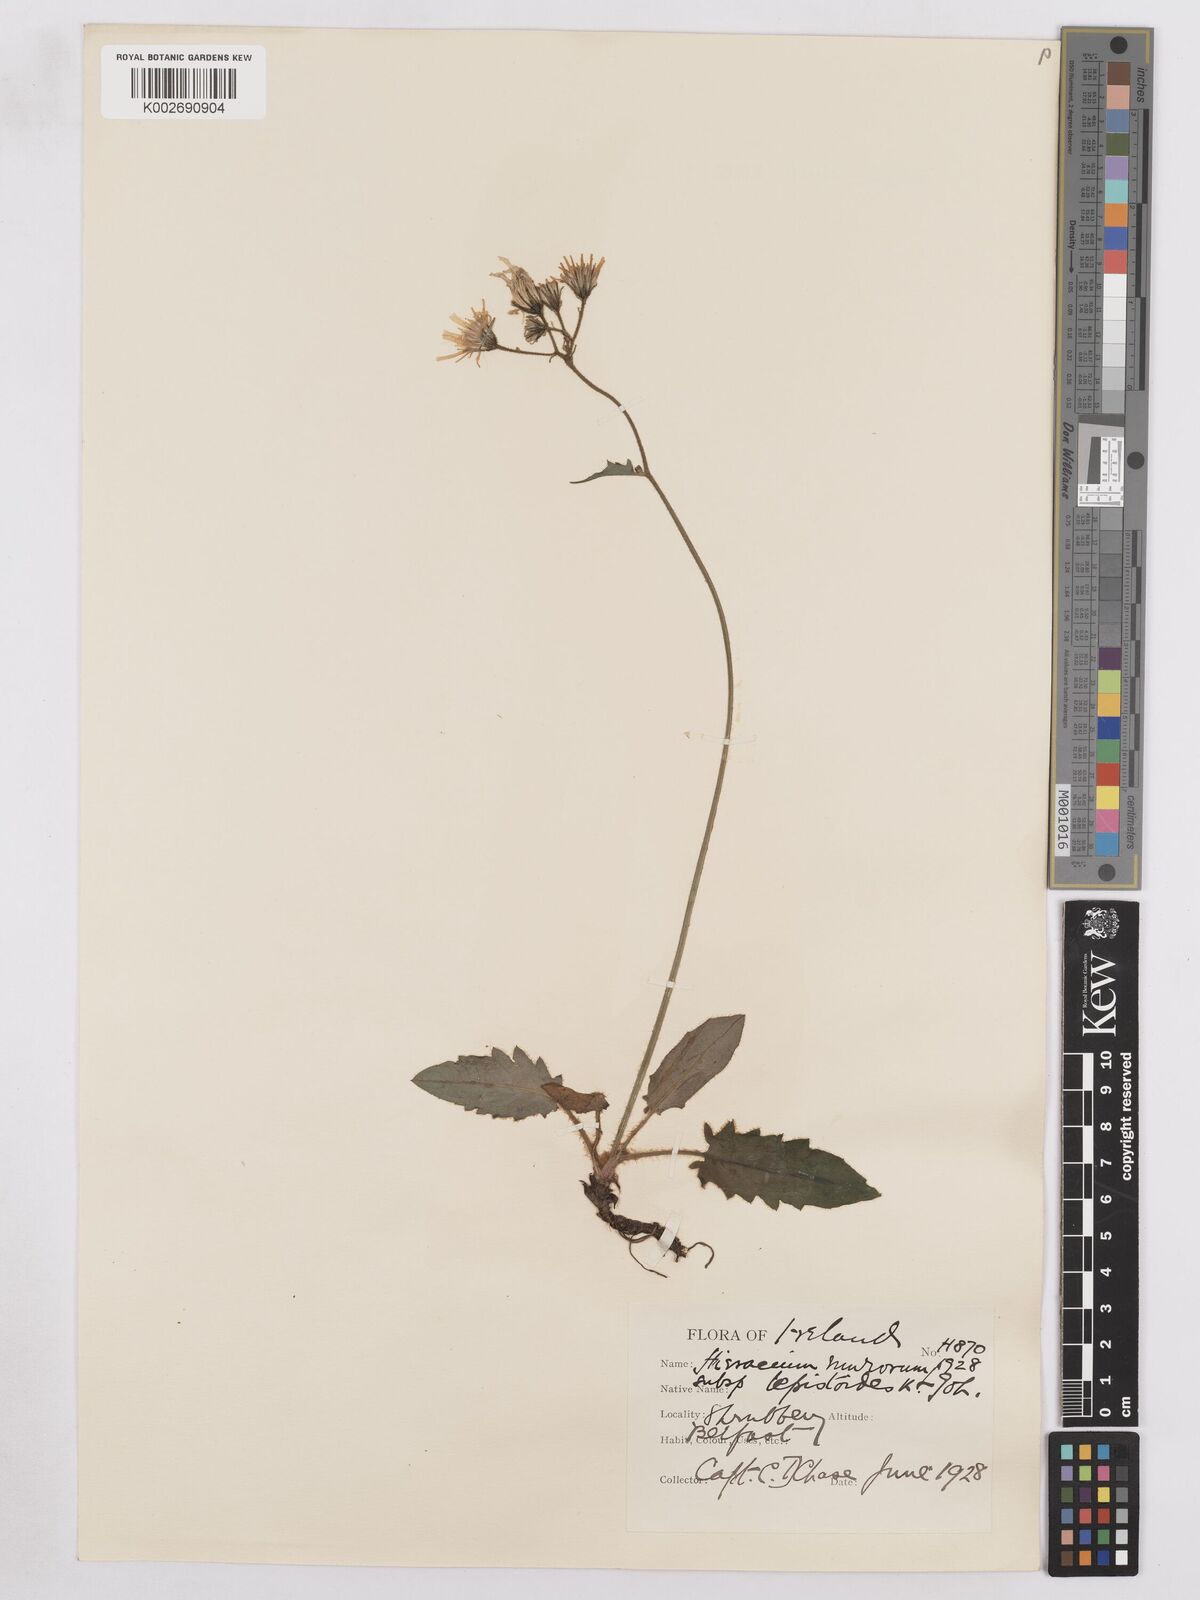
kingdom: Plantae
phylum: Tracheophyta
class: Magnoliopsida
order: Asterales
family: Asteraceae
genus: Hieracium
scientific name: Hieracium murorum
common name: Wall hawkweed
